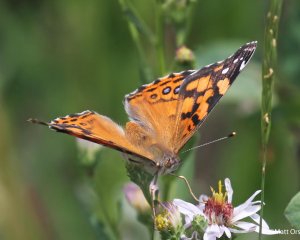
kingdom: Animalia
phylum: Arthropoda
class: Insecta
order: Lepidoptera
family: Nymphalidae
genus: Vanessa
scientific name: Vanessa annabella
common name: West Coast Lady
